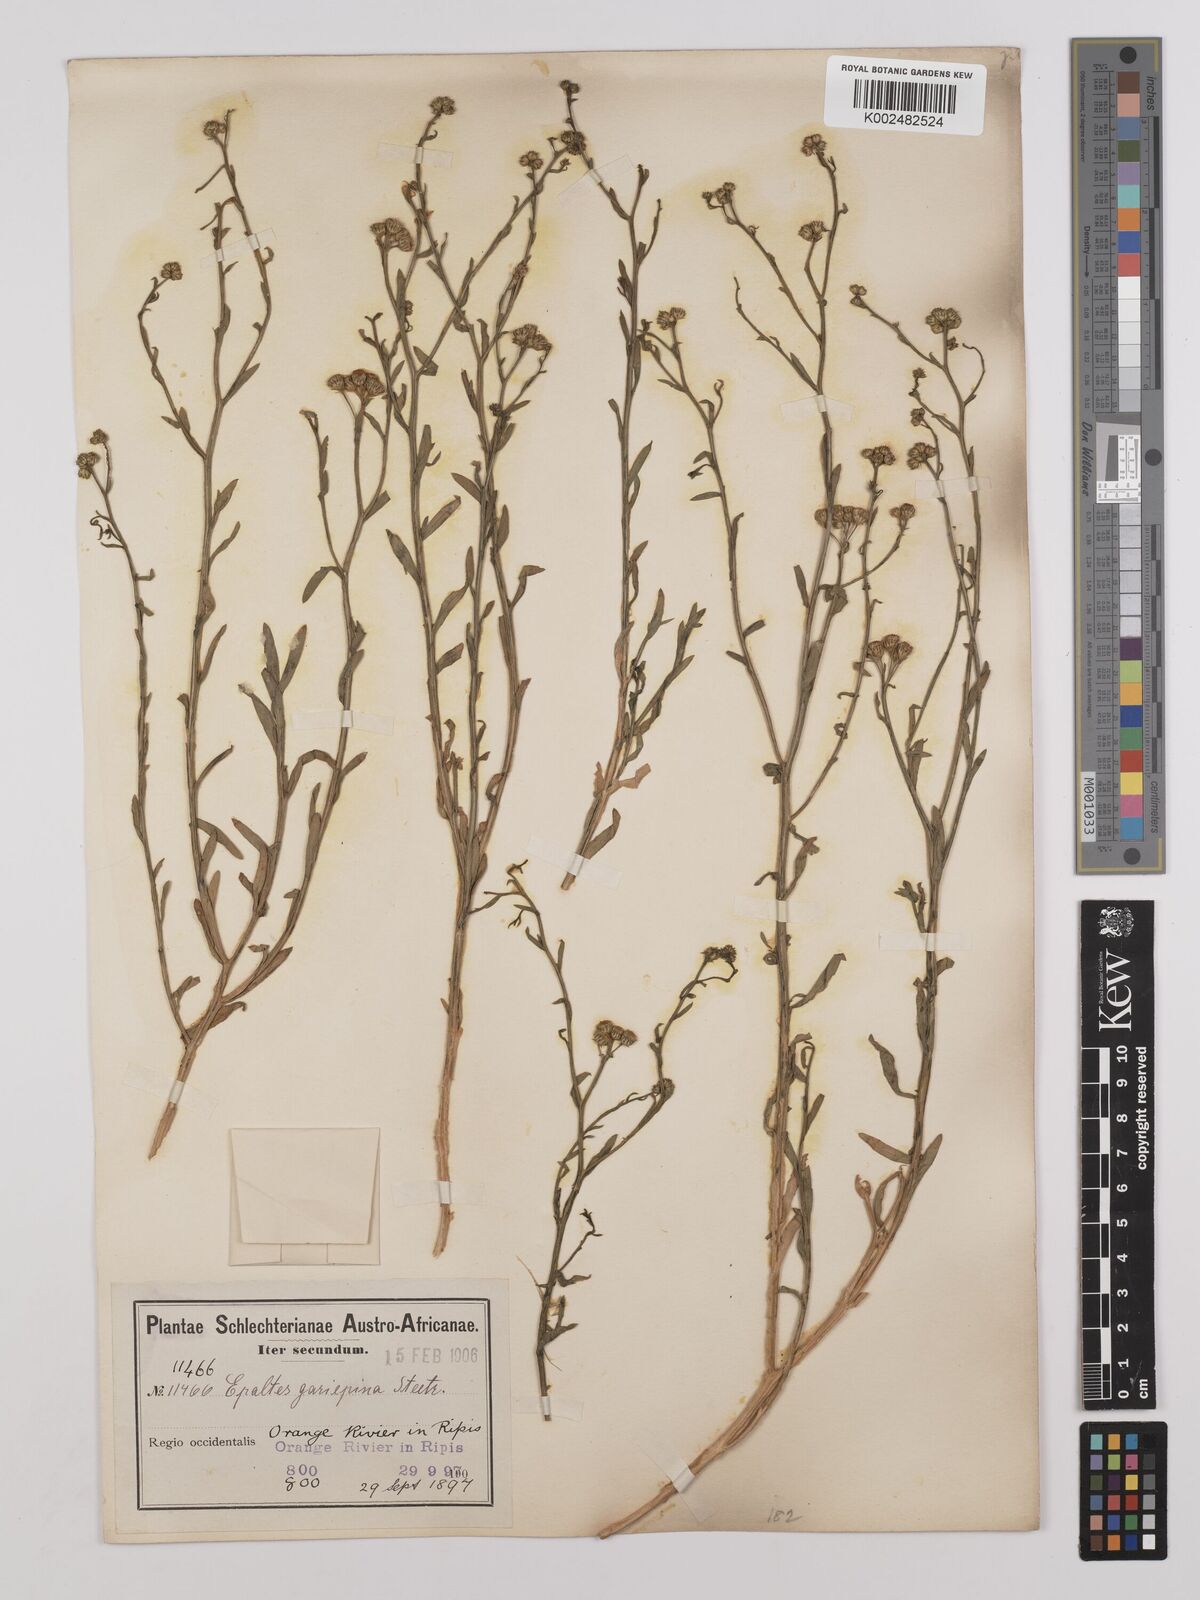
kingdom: Plantae
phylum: Tracheophyta
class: Magnoliopsida
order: Asterales
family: Asteraceae
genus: Litogyne
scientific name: Litogyne gariepina
